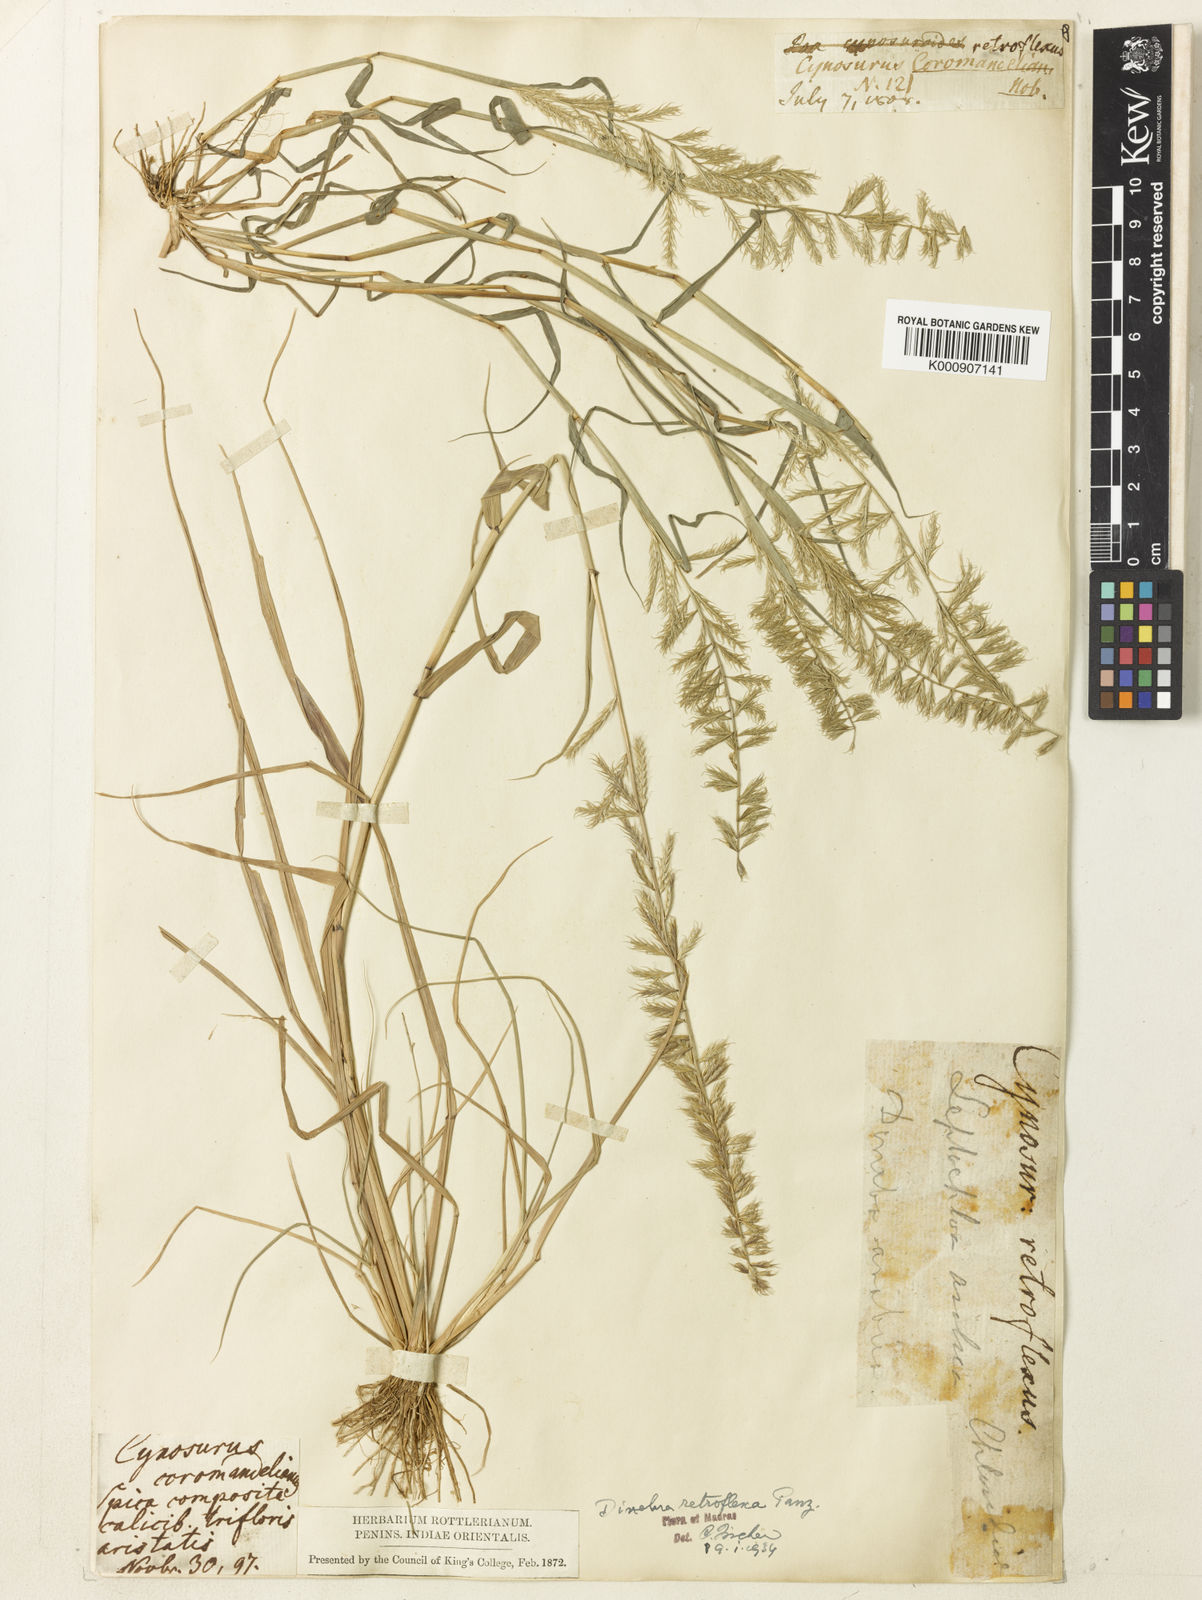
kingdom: Plantae
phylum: Tracheophyta
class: Liliopsida
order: Poales
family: Poaceae
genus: Dinebra
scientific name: Dinebra retroflexa
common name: Viper grass
